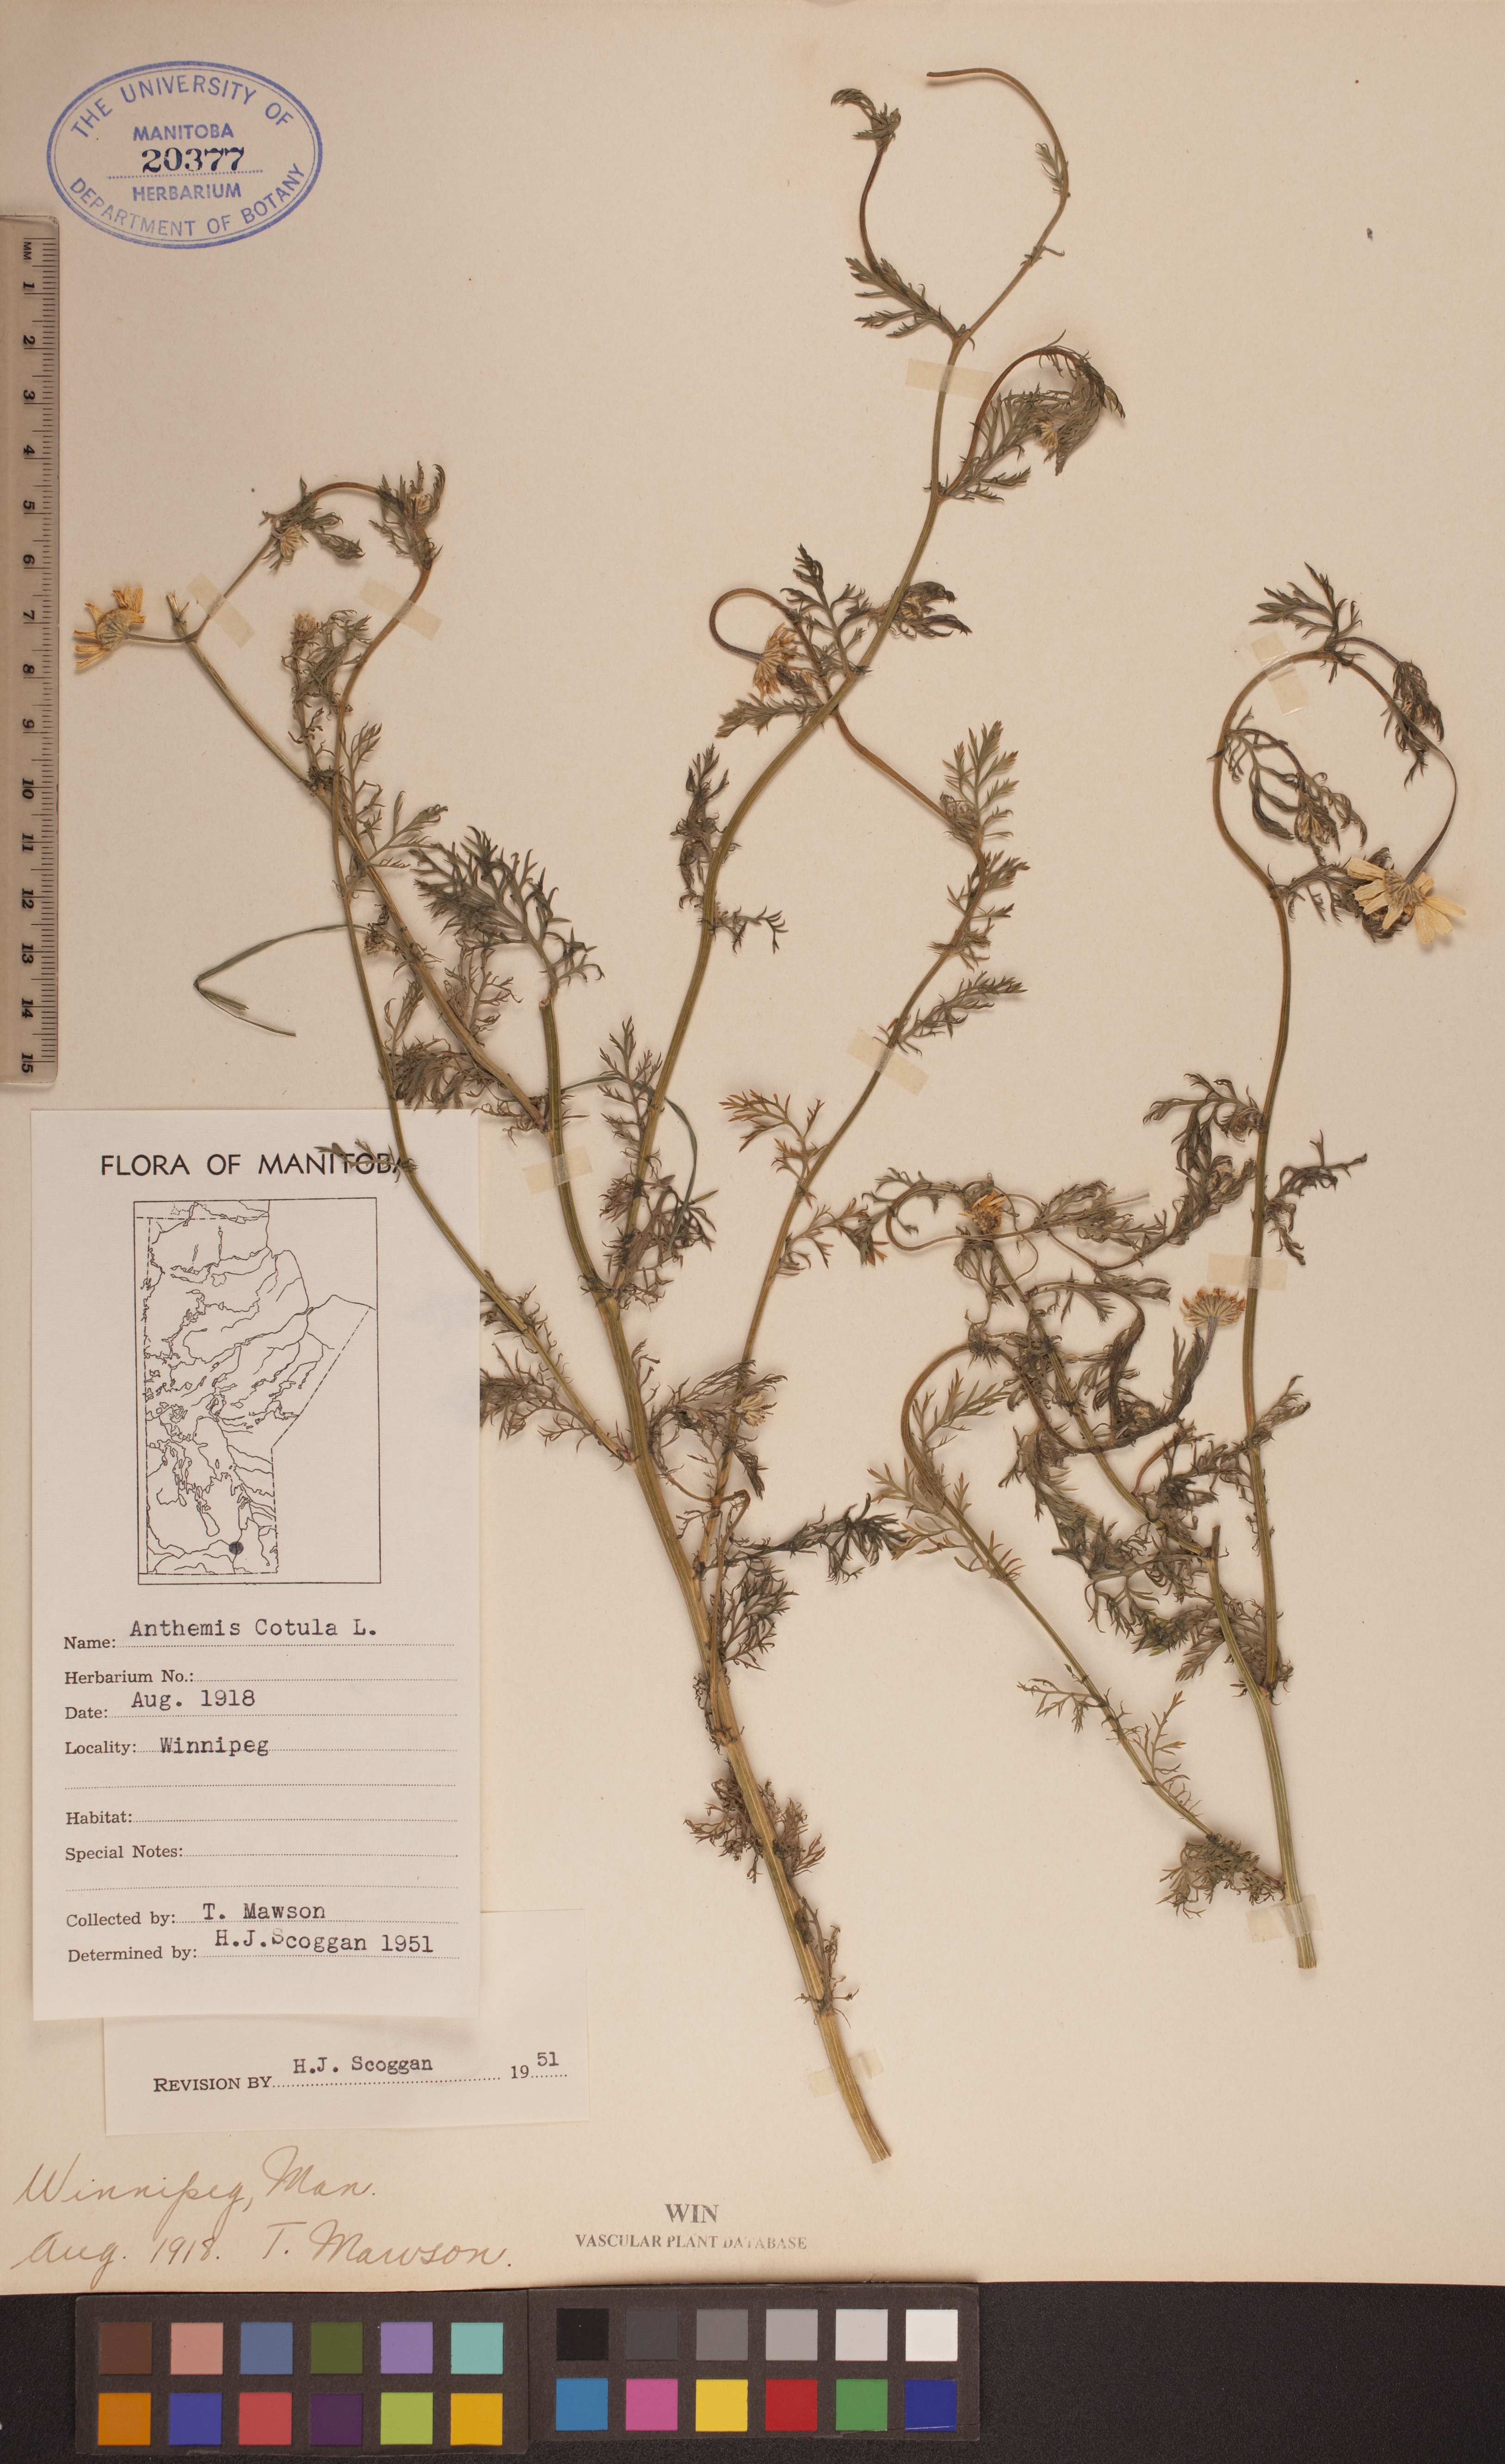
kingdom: Plantae
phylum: Tracheophyta
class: Magnoliopsida
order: Asterales
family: Asteraceae
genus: Anthemis
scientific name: Anthemis cotula
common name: Stinking chamomile
